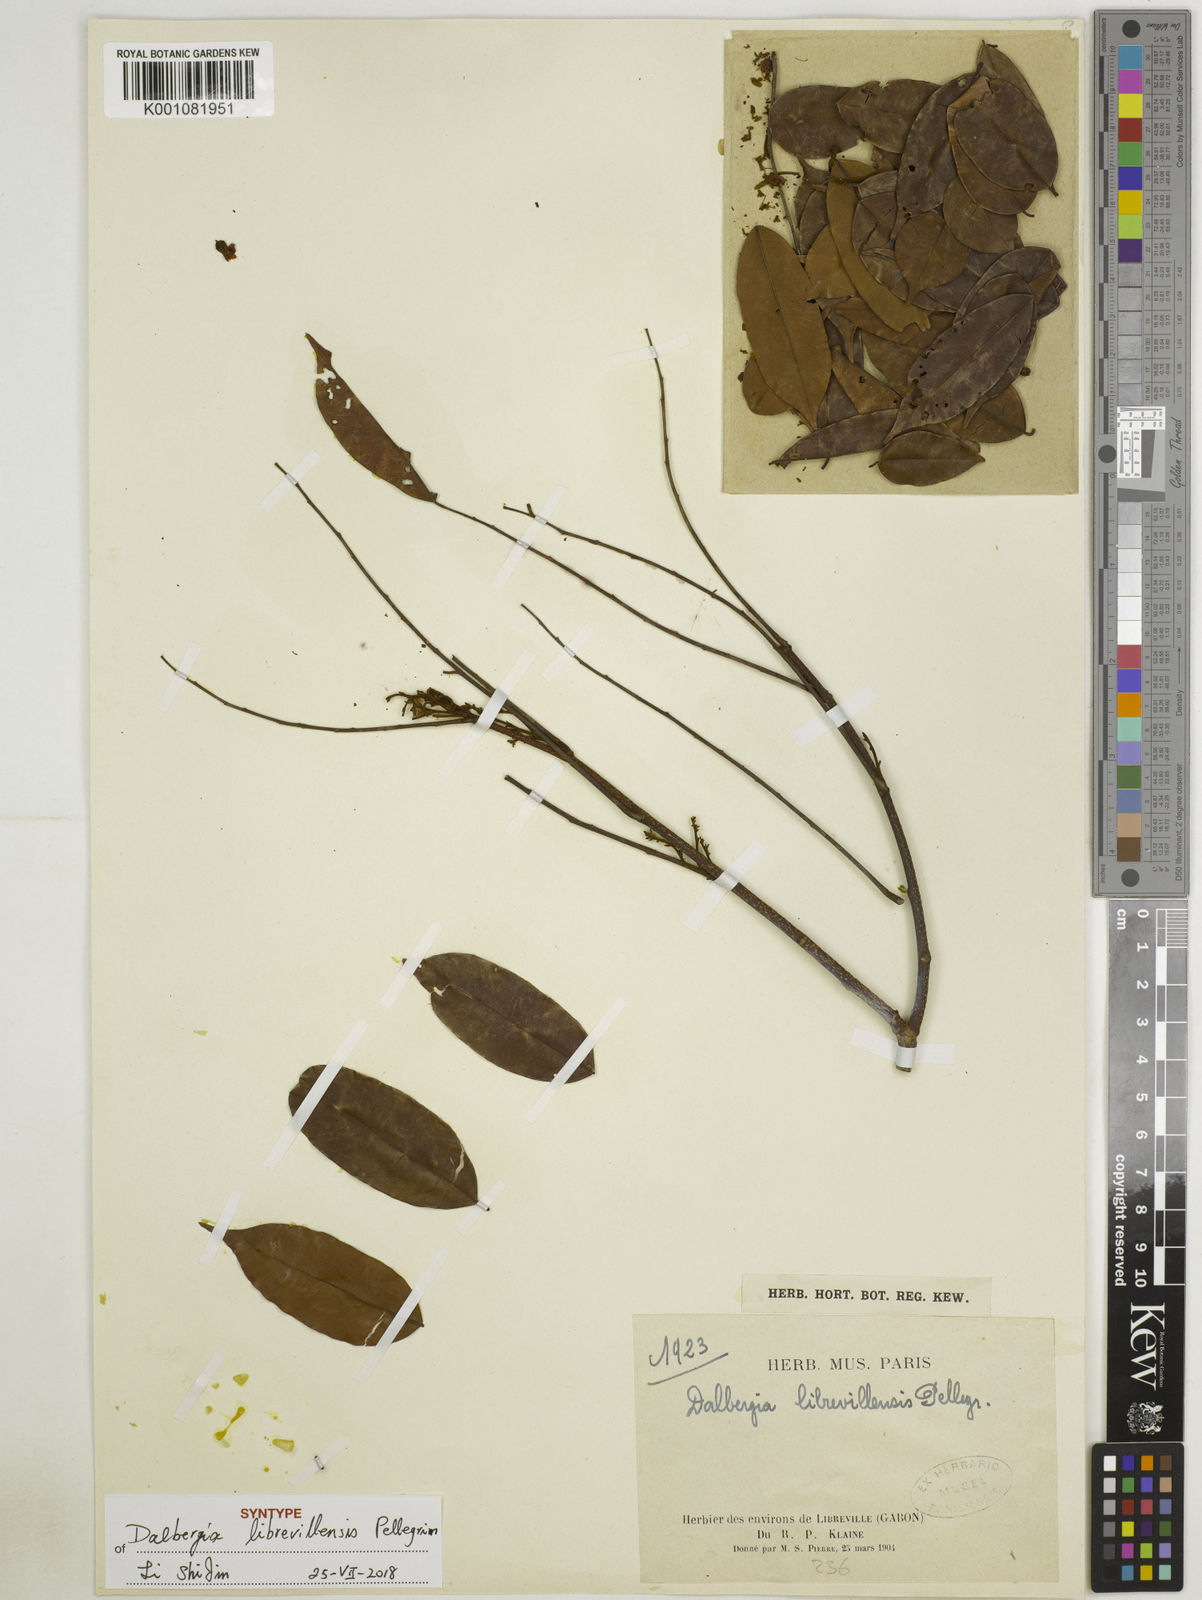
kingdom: Plantae
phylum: Tracheophyta
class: Magnoliopsida
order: Fabales
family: Fabaceae
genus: Dalbergia
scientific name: Dalbergia librevillensis
